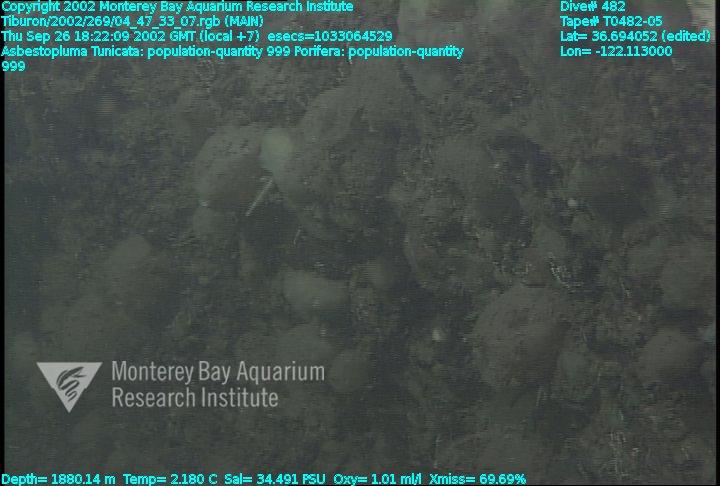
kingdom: Animalia
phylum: Porifera
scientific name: Porifera
